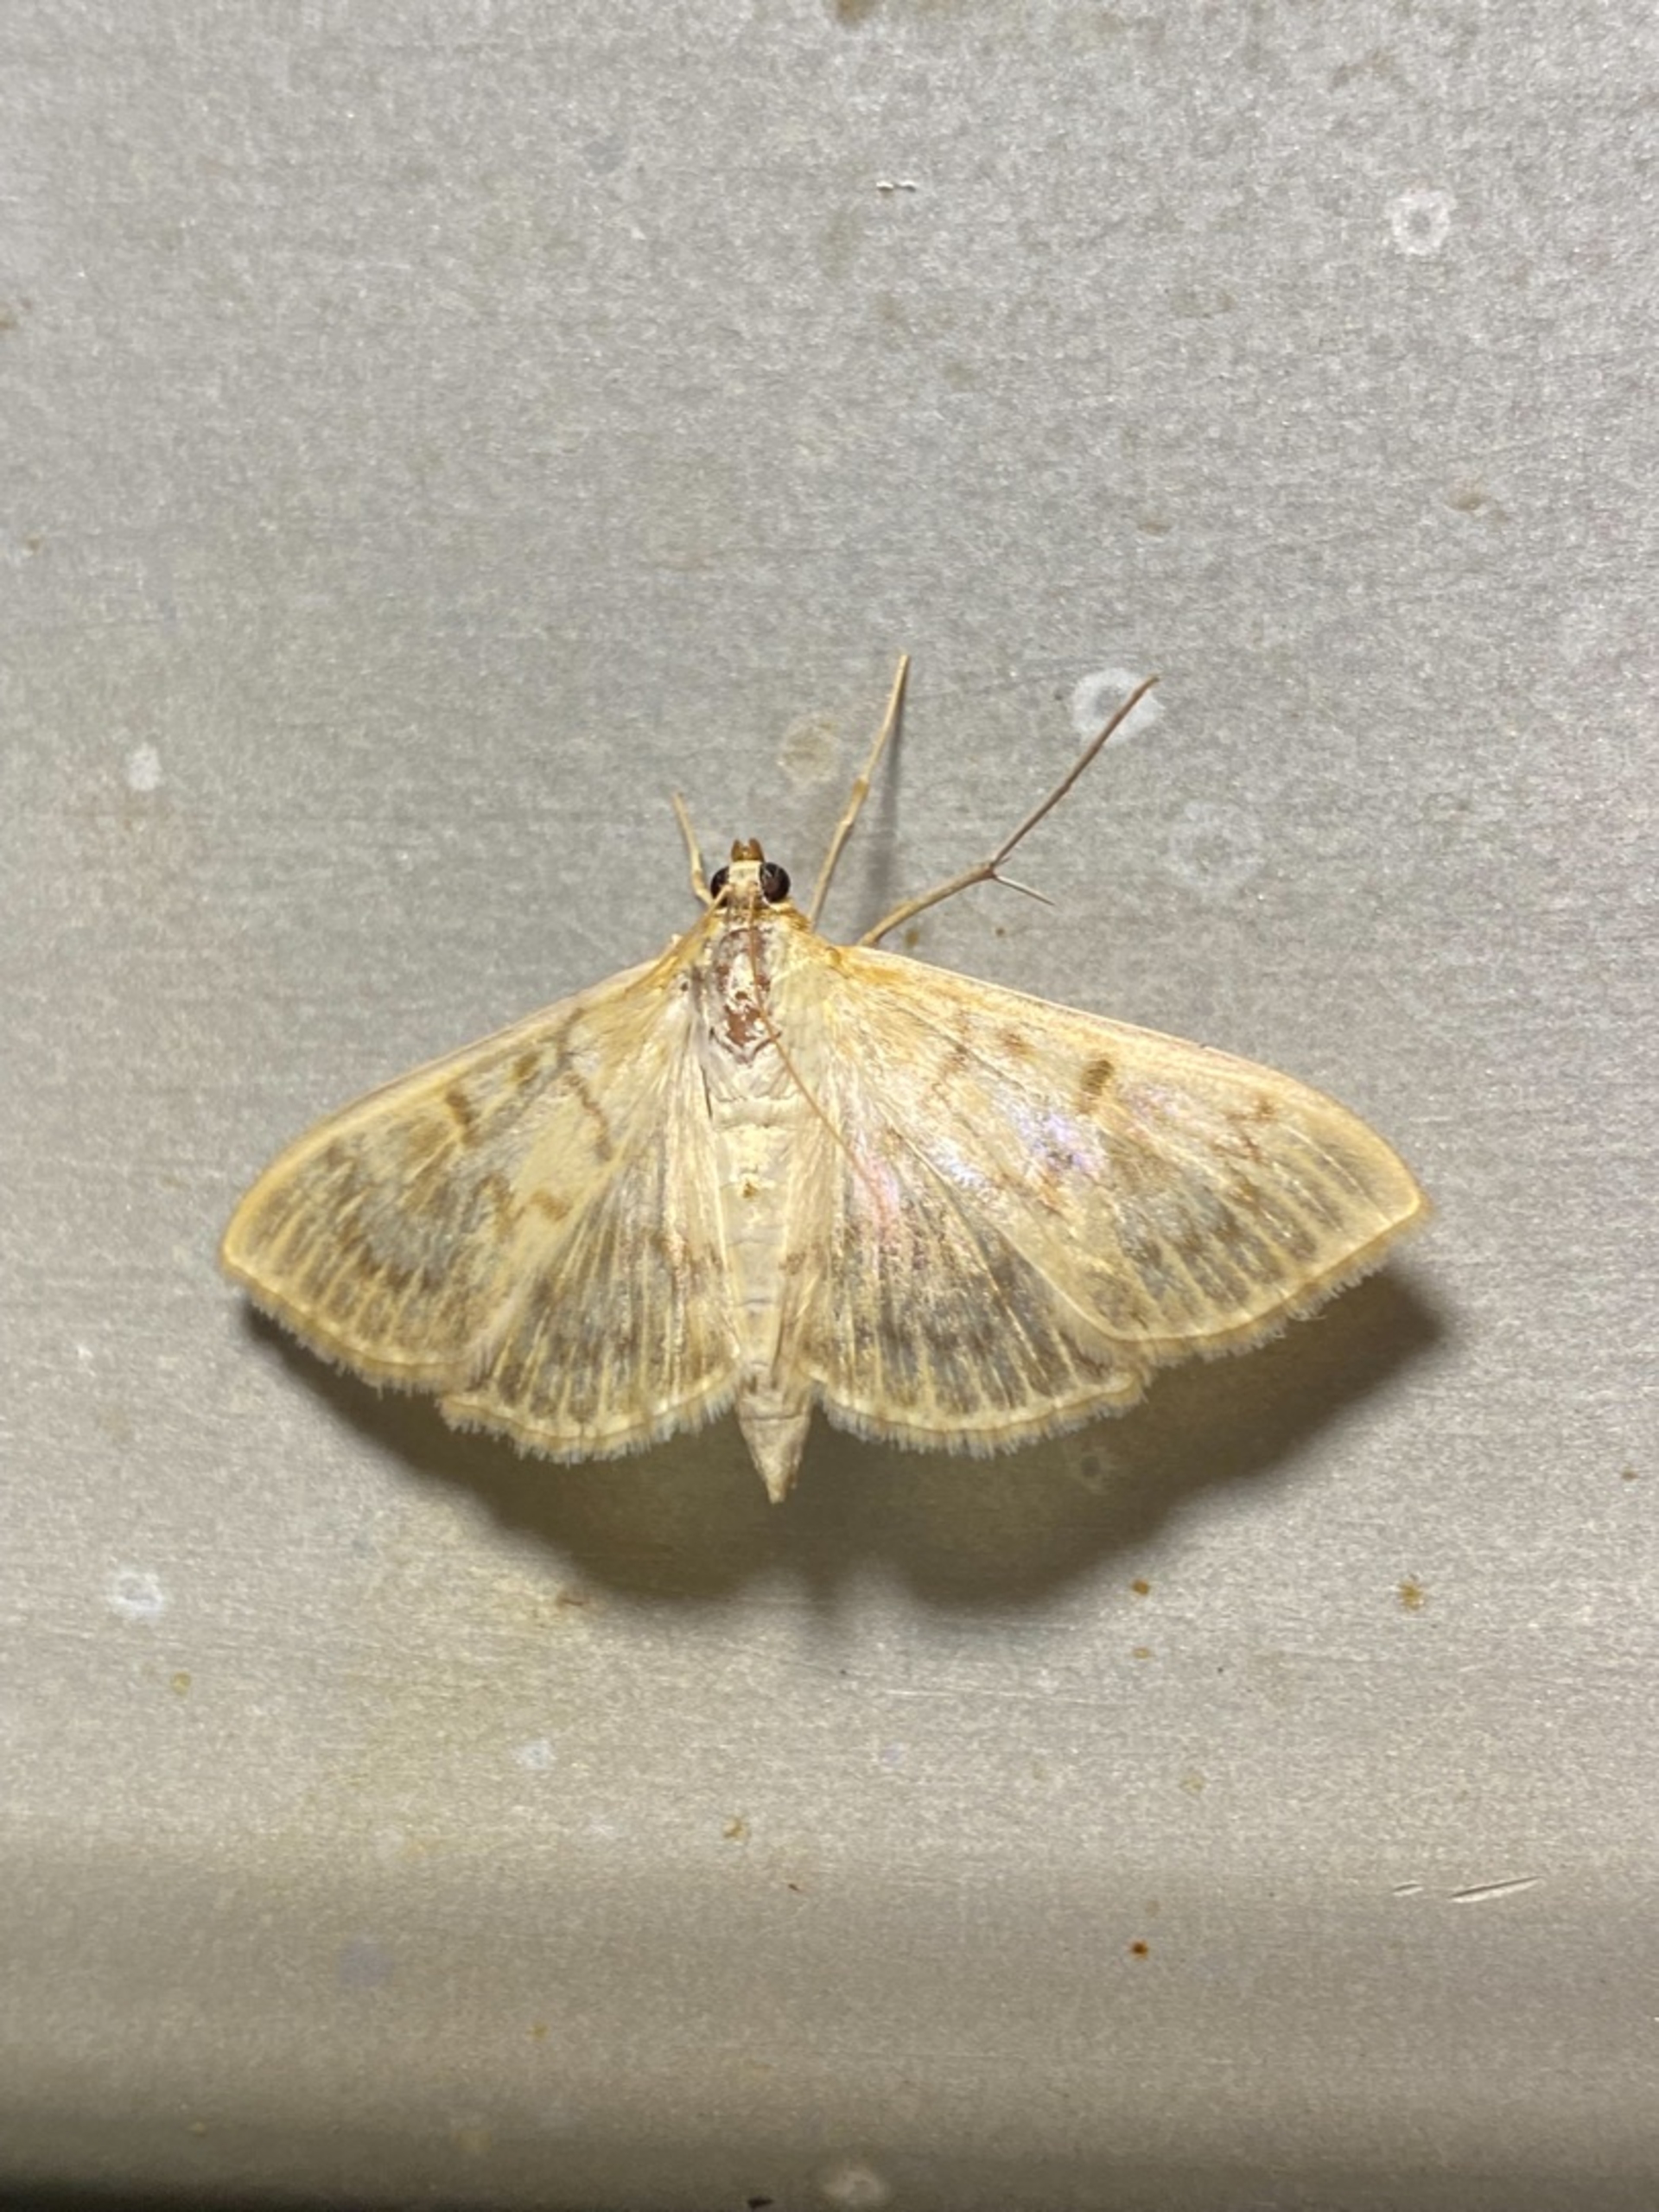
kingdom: Animalia
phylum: Arthropoda
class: Insecta
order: Lepidoptera
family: Crambidae
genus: Patania
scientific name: Patania ruralis
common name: Perlemorshalvmøl
